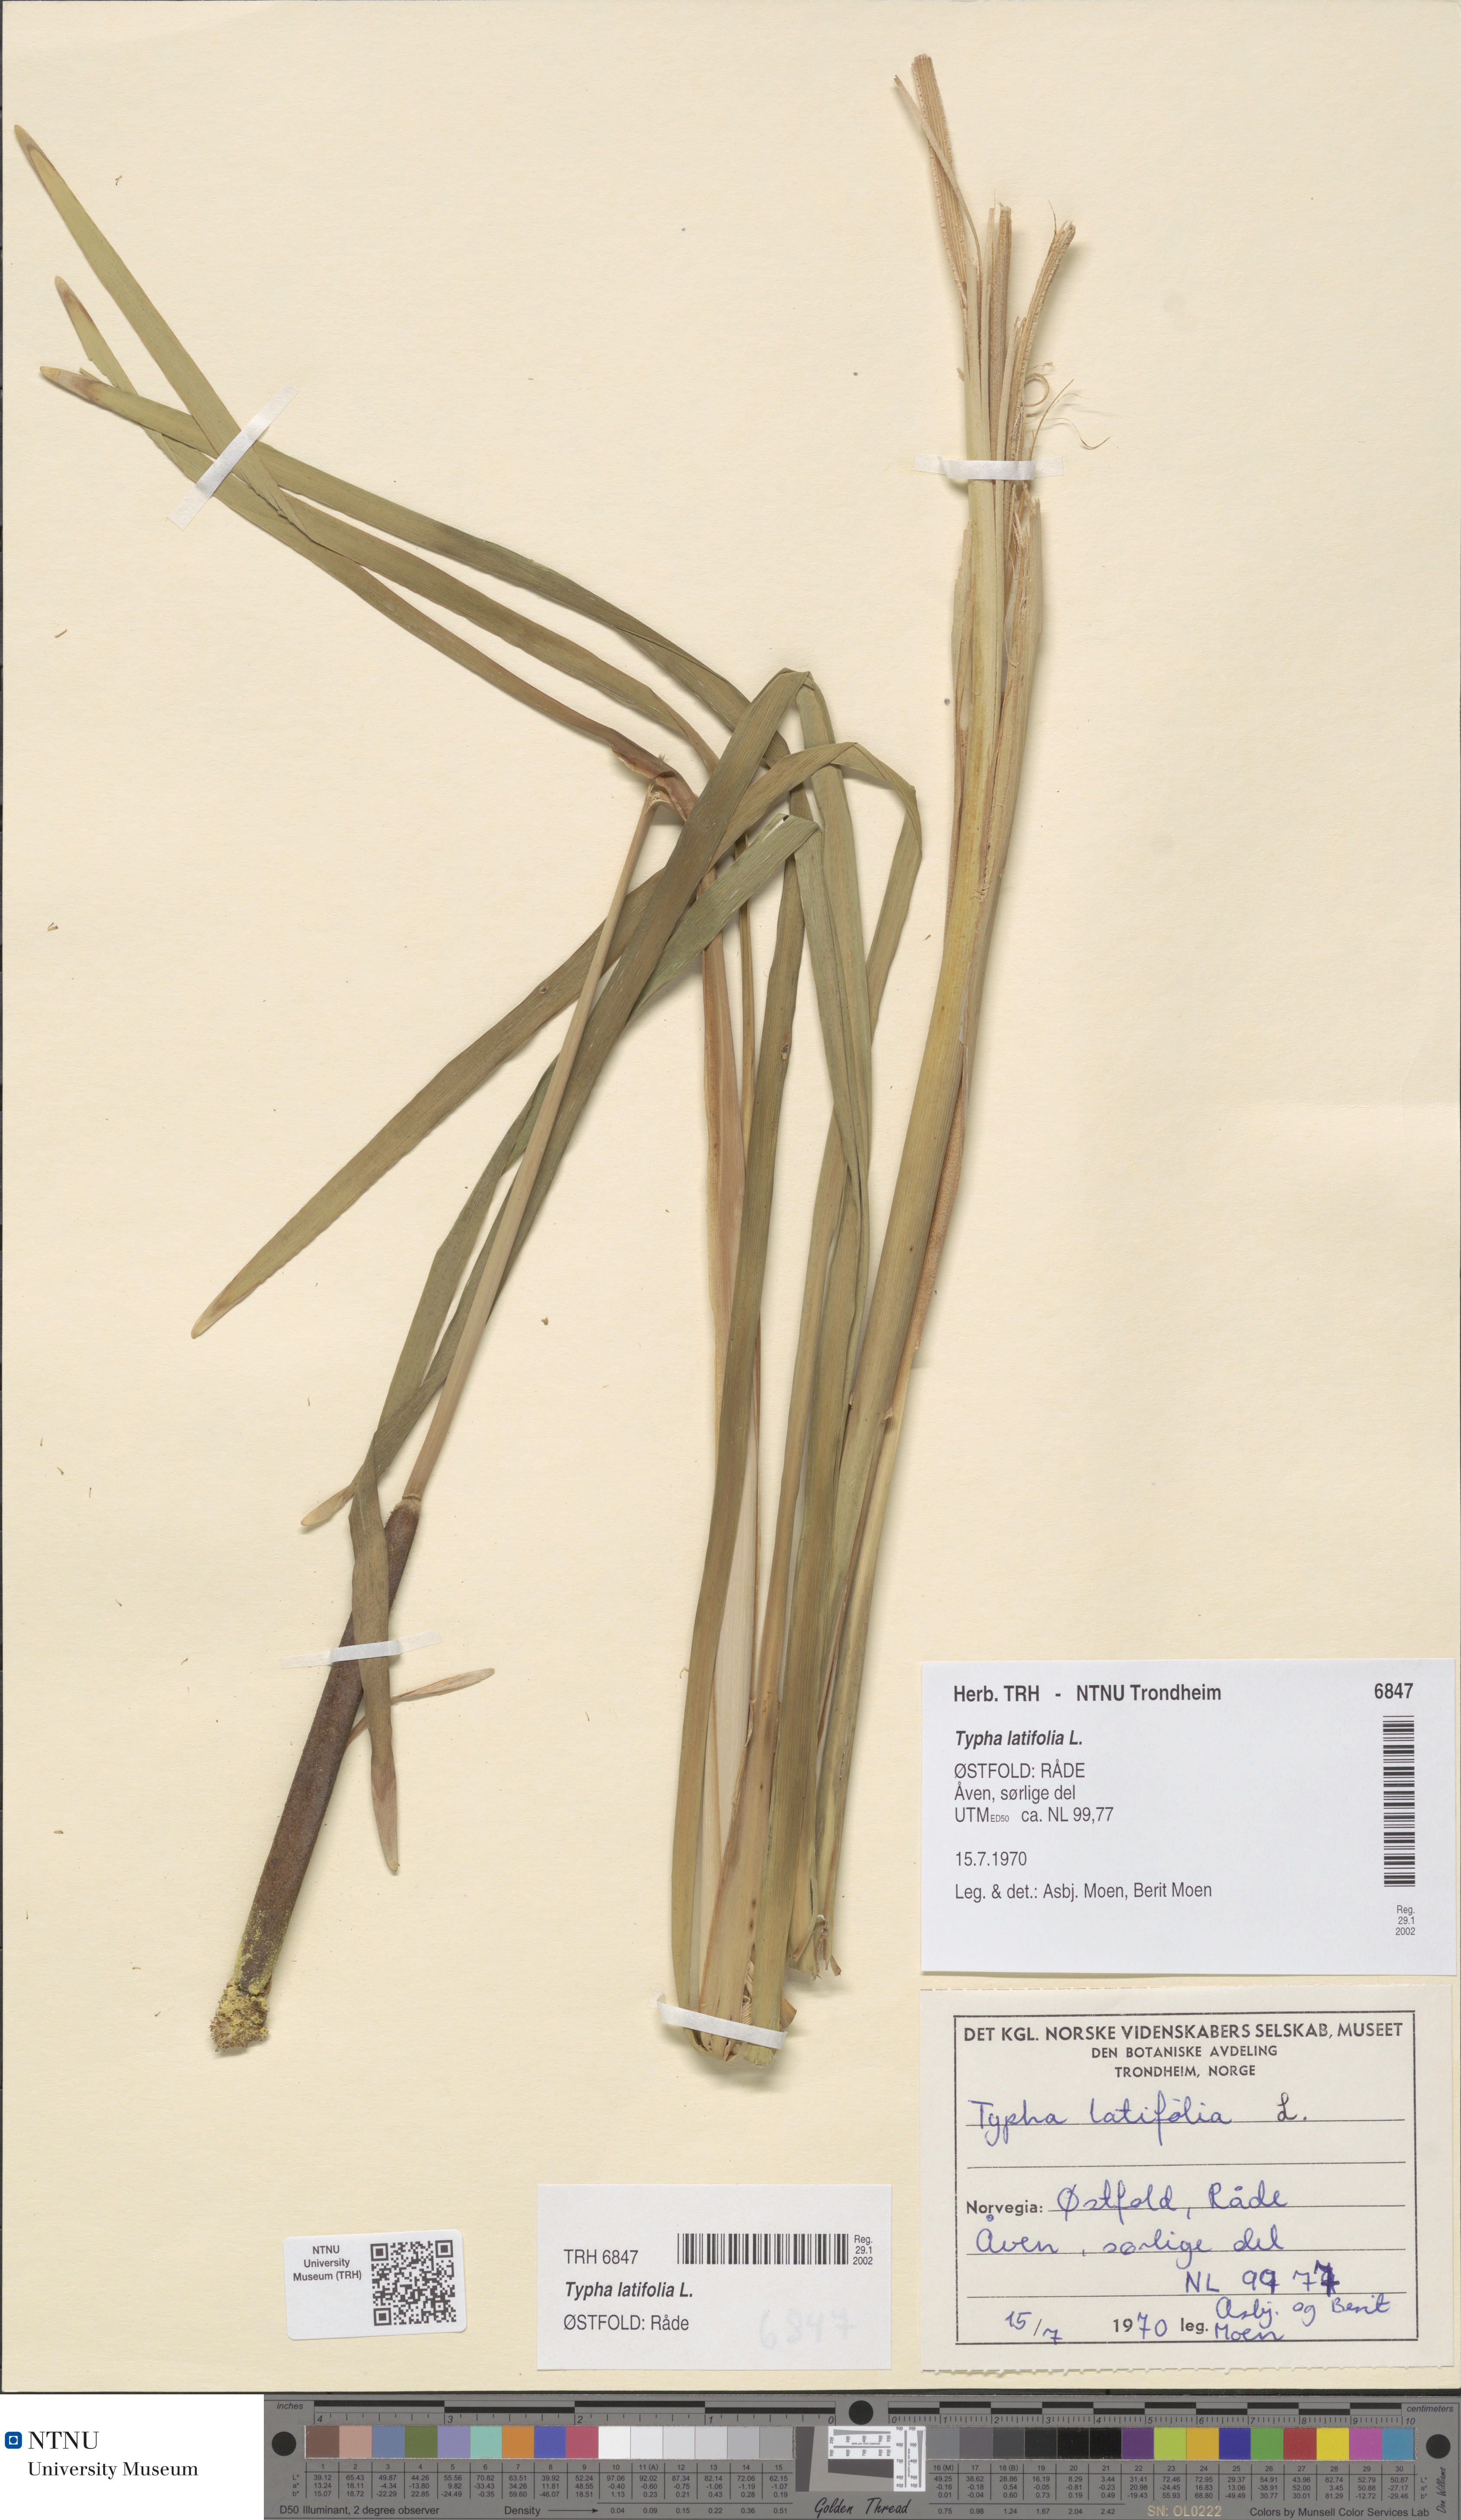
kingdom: Plantae
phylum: Tracheophyta
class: Liliopsida
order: Poales
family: Typhaceae
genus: Typha
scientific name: Typha latifolia
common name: Broadleaf cattail
